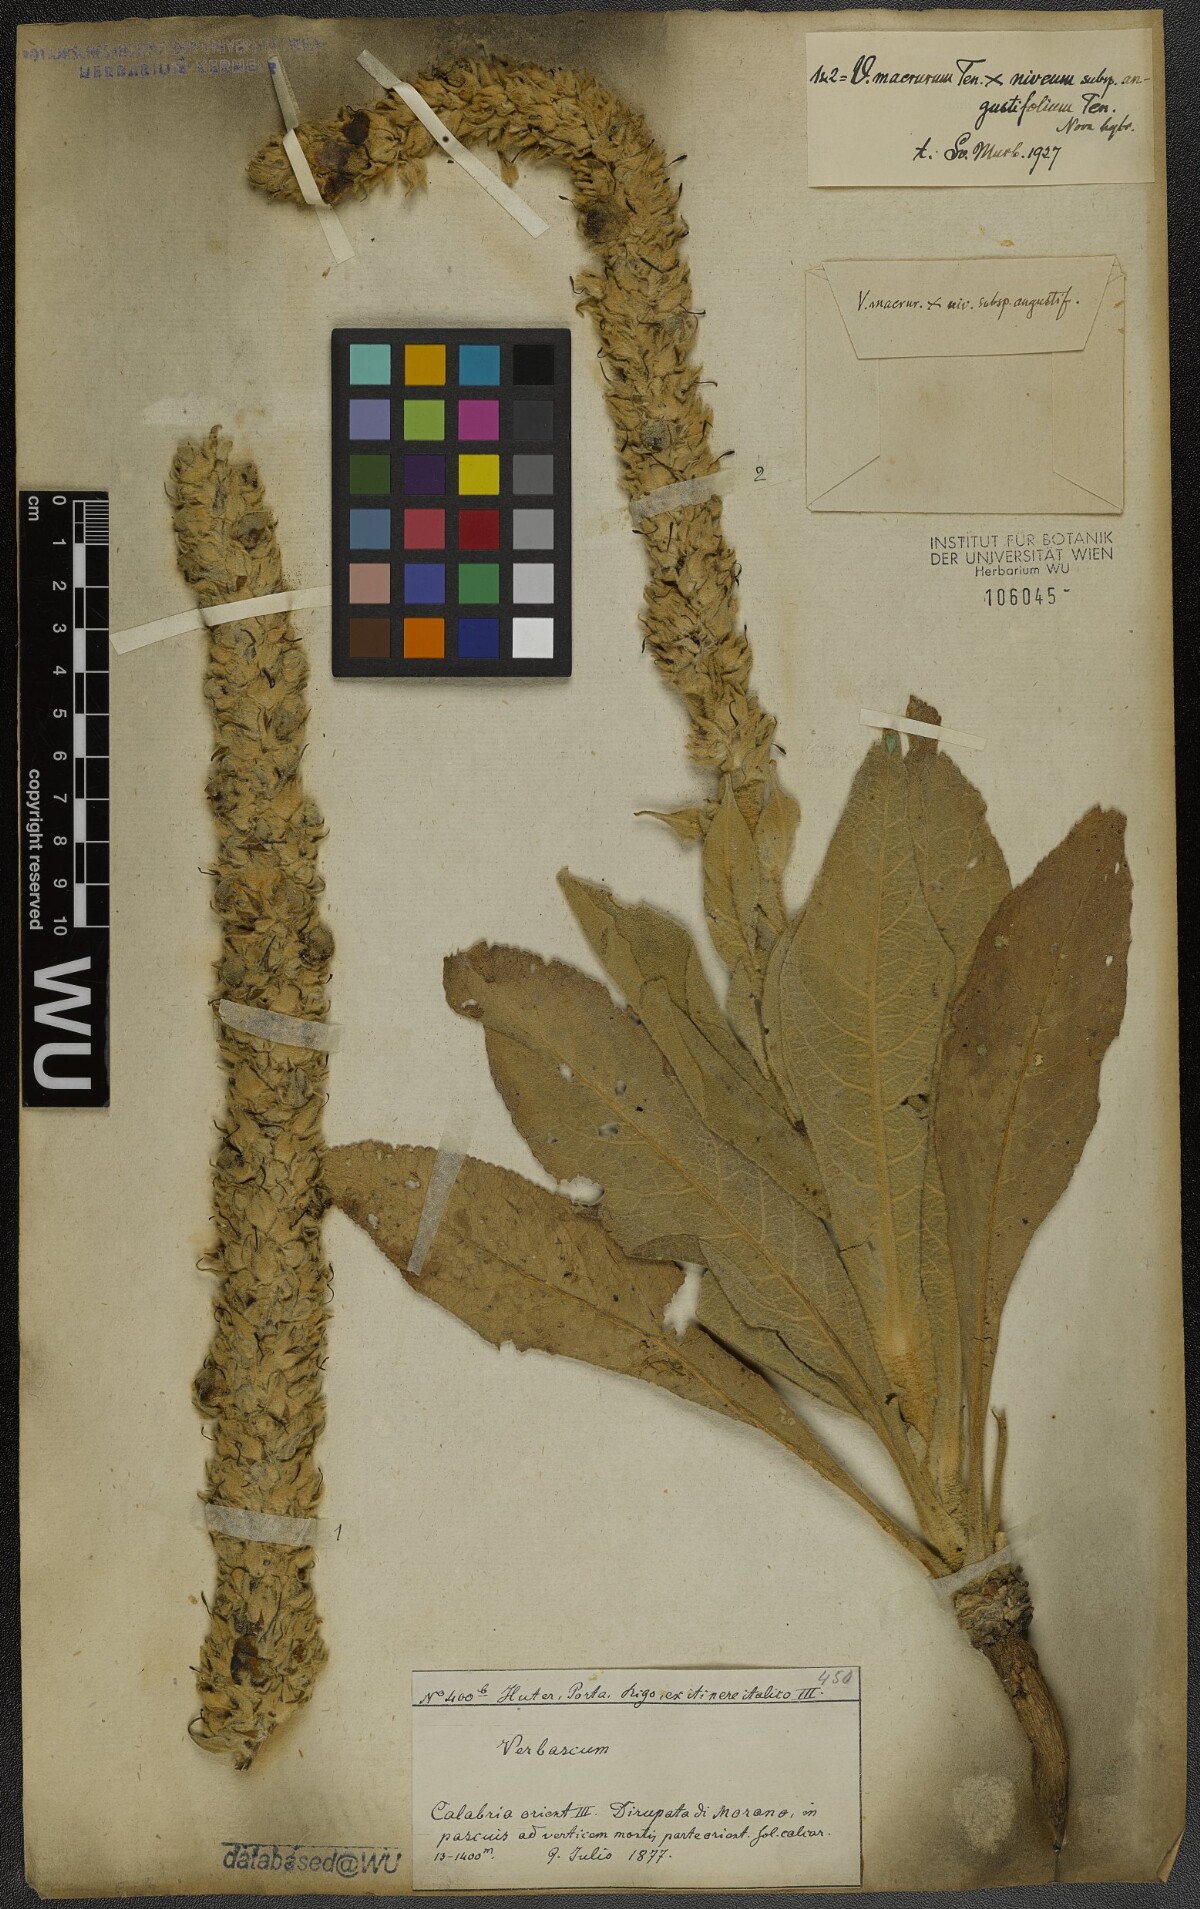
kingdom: Plantae
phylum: Tracheophyta
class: Magnoliopsida
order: Lamiales
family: Scrophulariaceae
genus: Verbascum
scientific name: Verbascum macrurum
